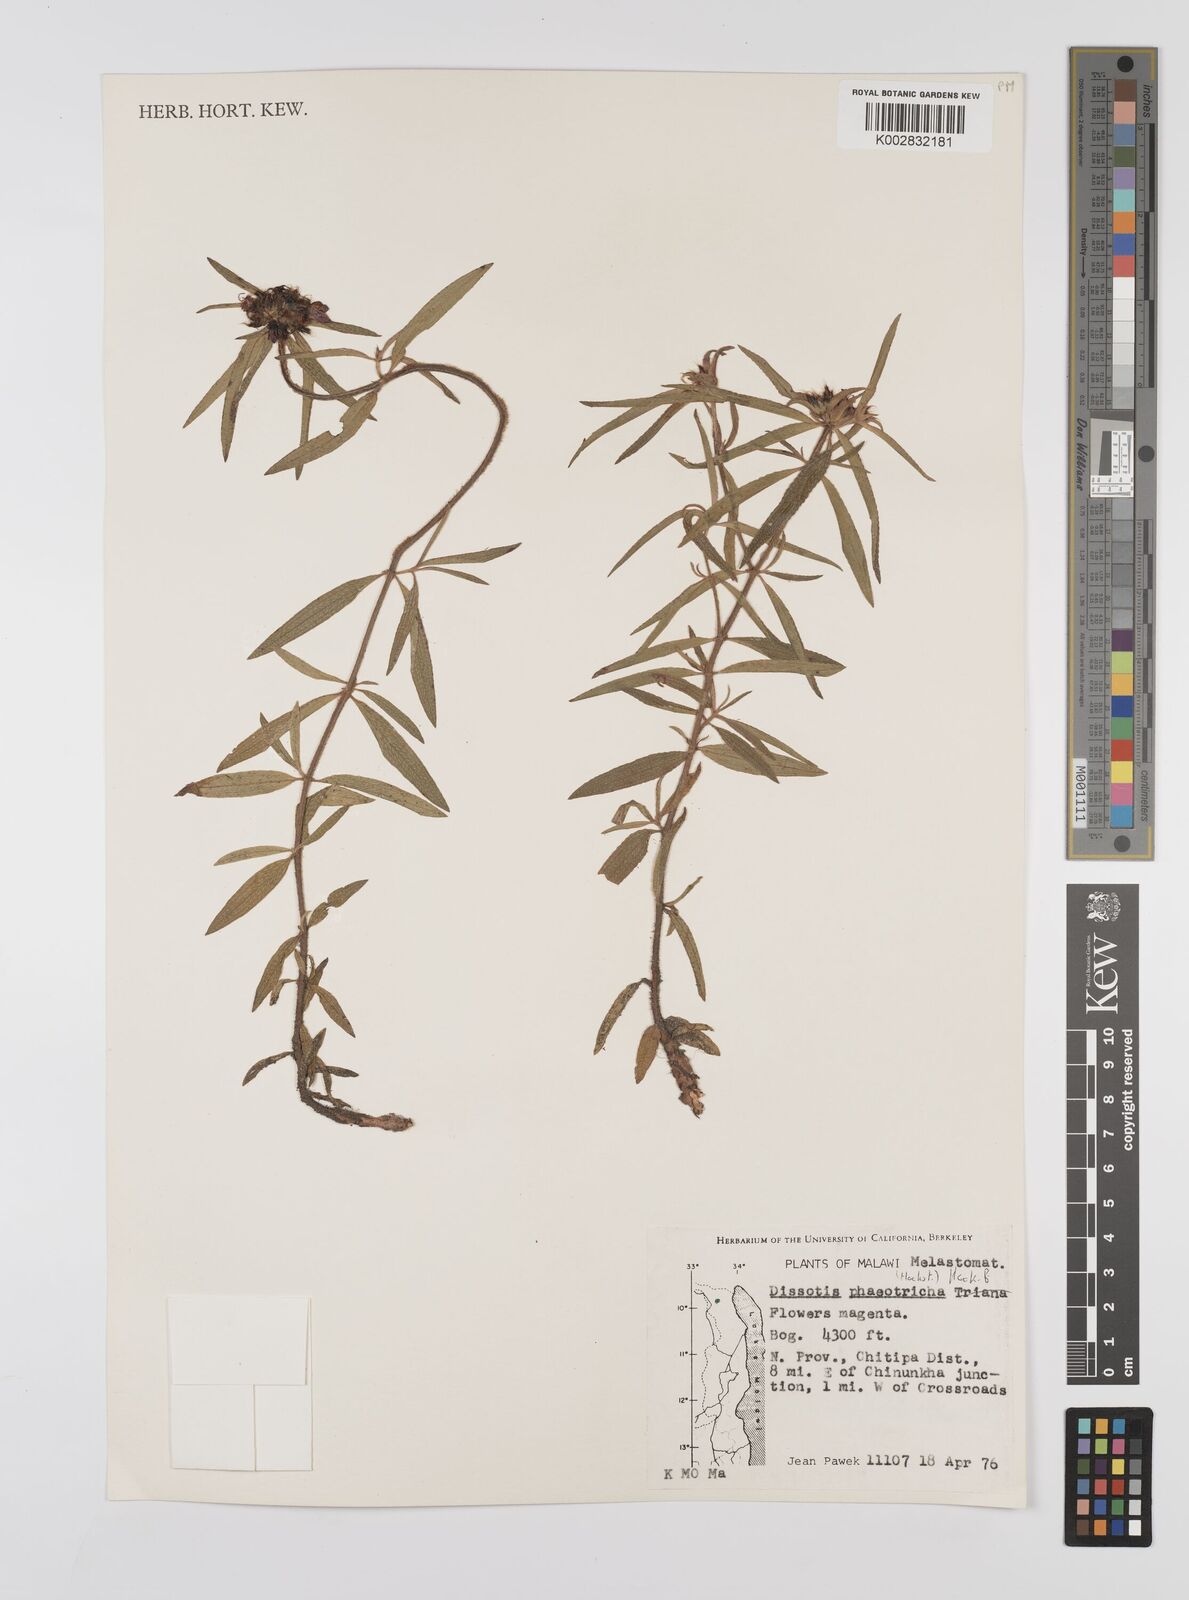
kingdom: Plantae
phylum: Tracheophyta
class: Magnoliopsida
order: Myrtales
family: Melastomataceae
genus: Antherotoma
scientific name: Antherotoma phaeotricha
